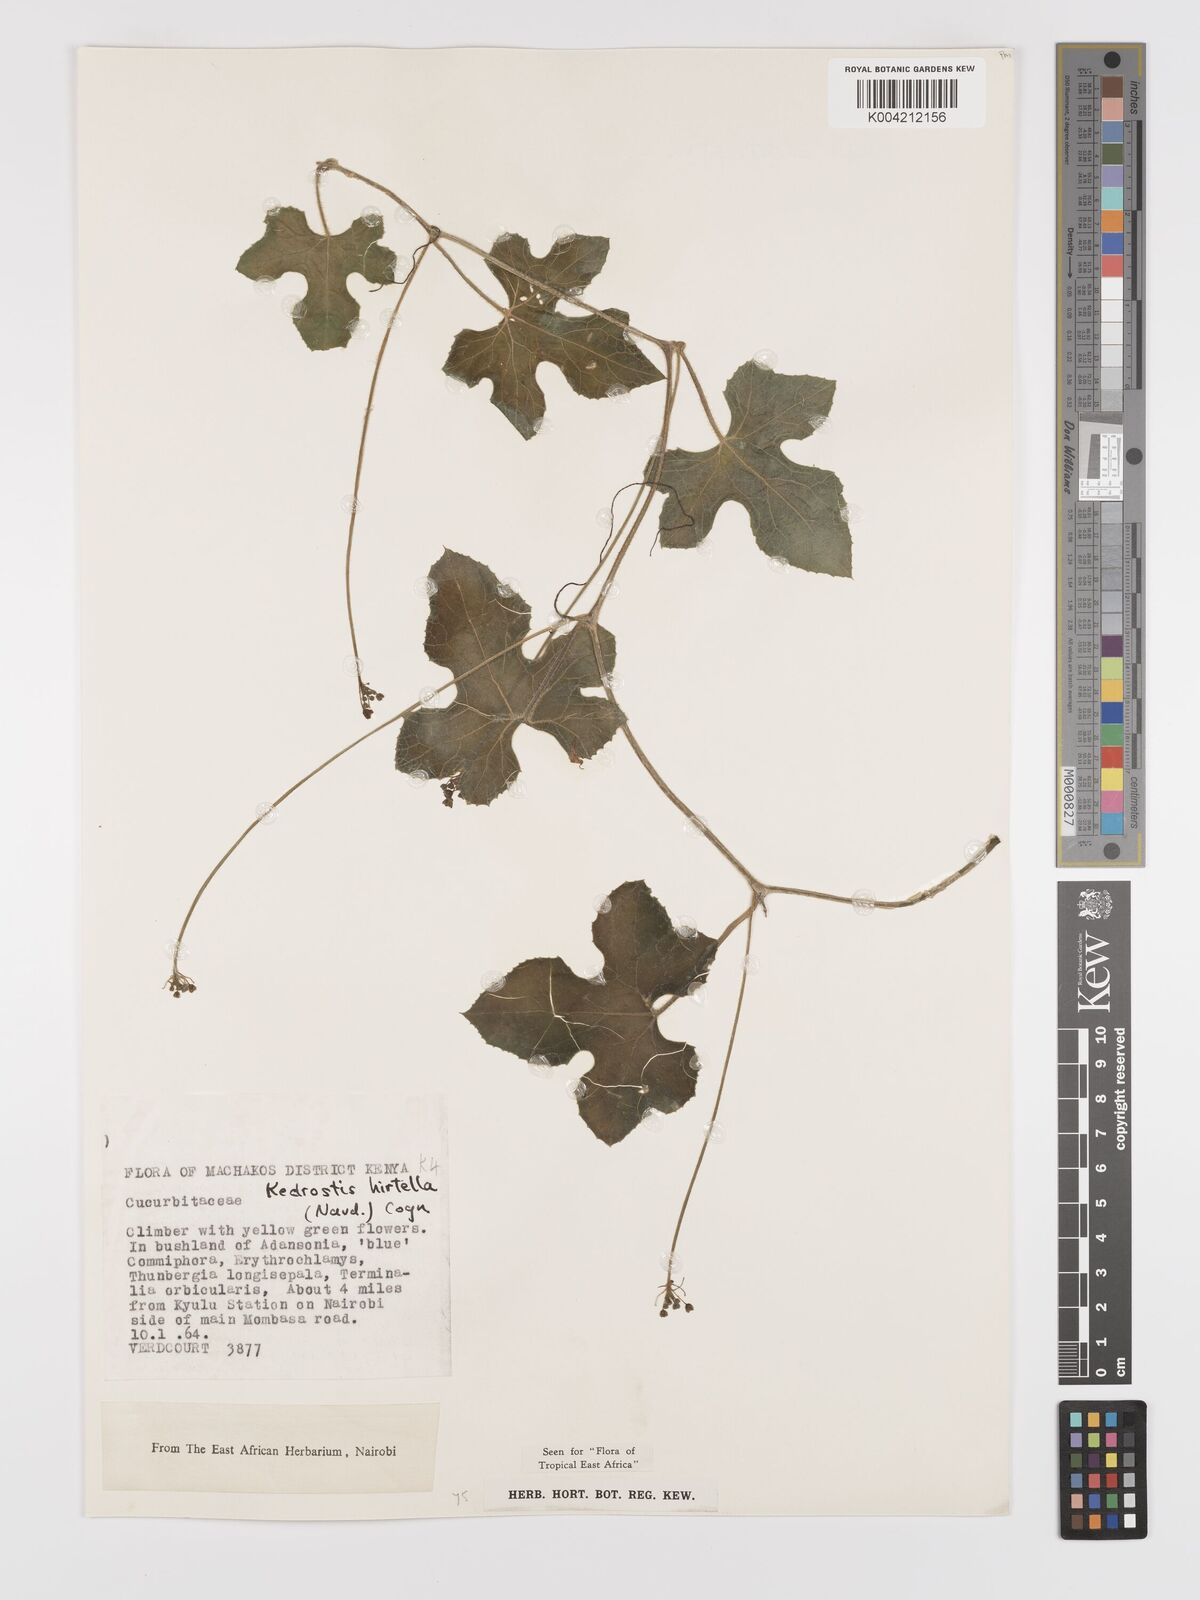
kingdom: Plantae
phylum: Tracheophyta
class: Magnoliopsida
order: Cucurbitales
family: Cucurbitaceae
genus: Kedrostis
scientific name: Kedrostis leloja
